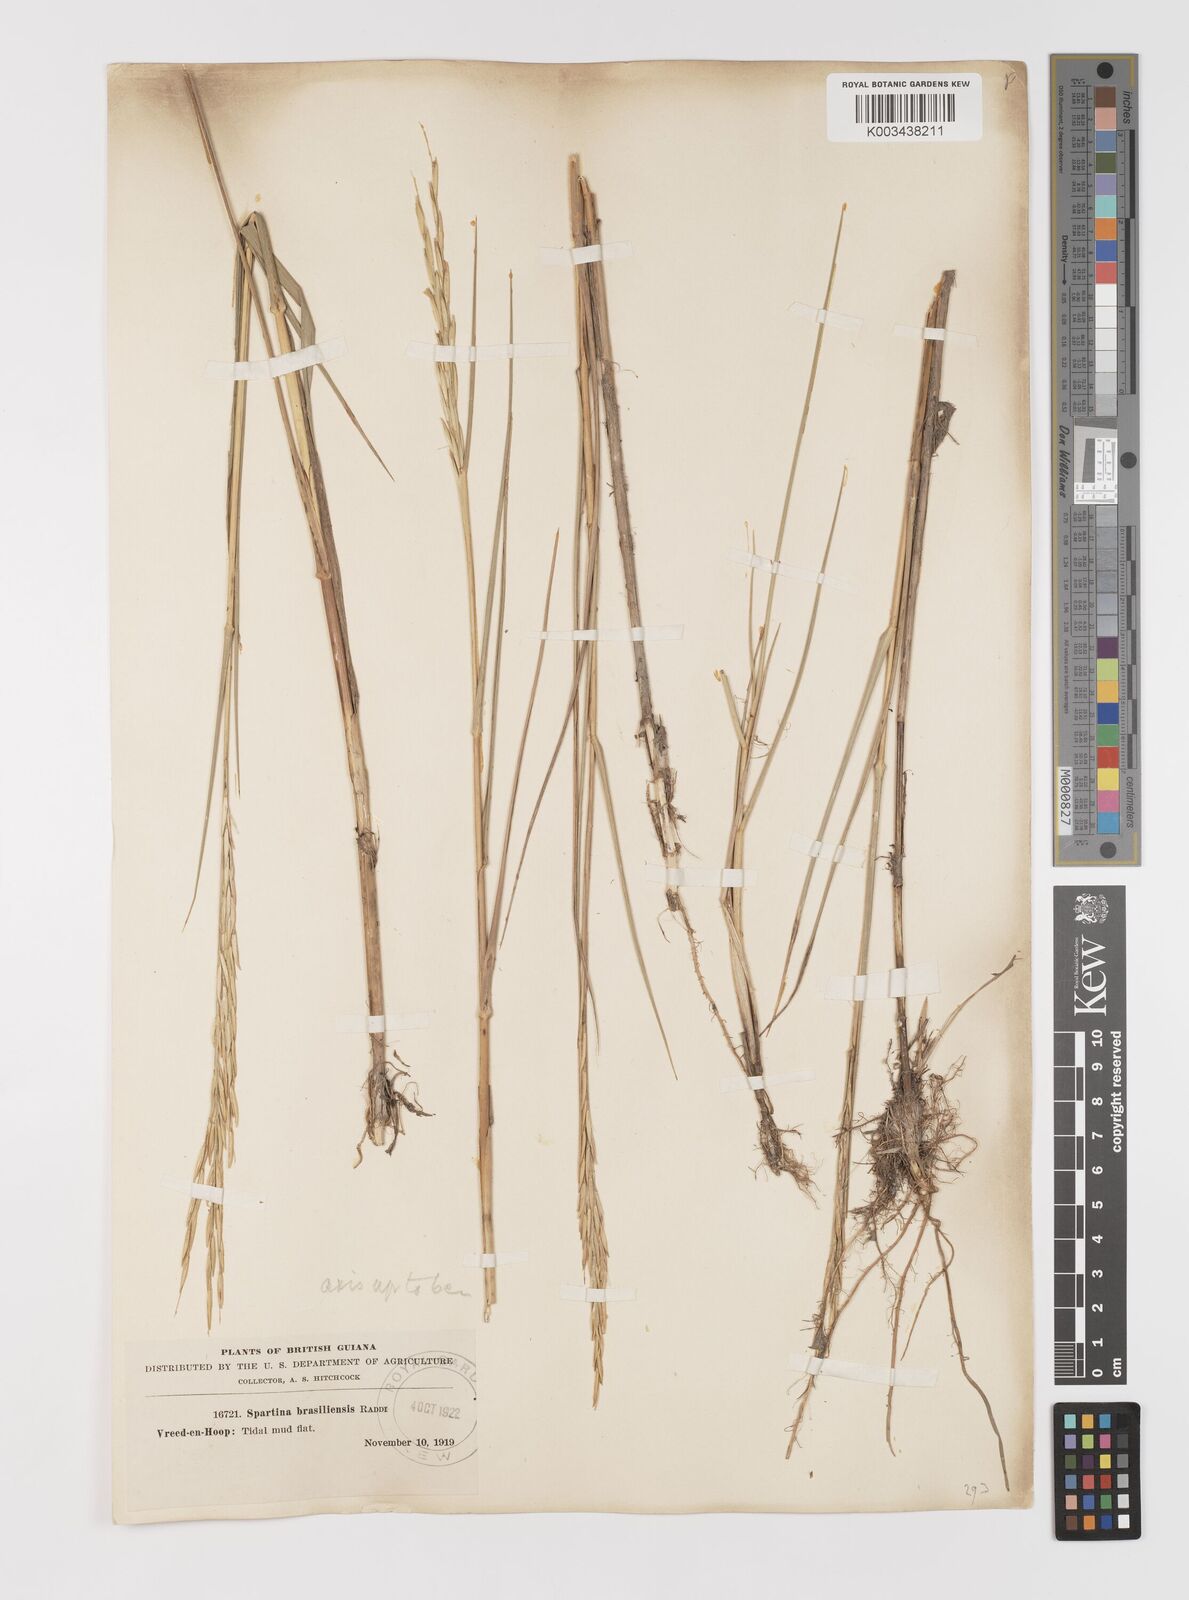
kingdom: Plantae
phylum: Tracheophyta
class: Liliopsida
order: Poales
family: Poaceae
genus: Sporobolus
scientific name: Sporobolus alterniflorus
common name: Atlantic cordgrass
